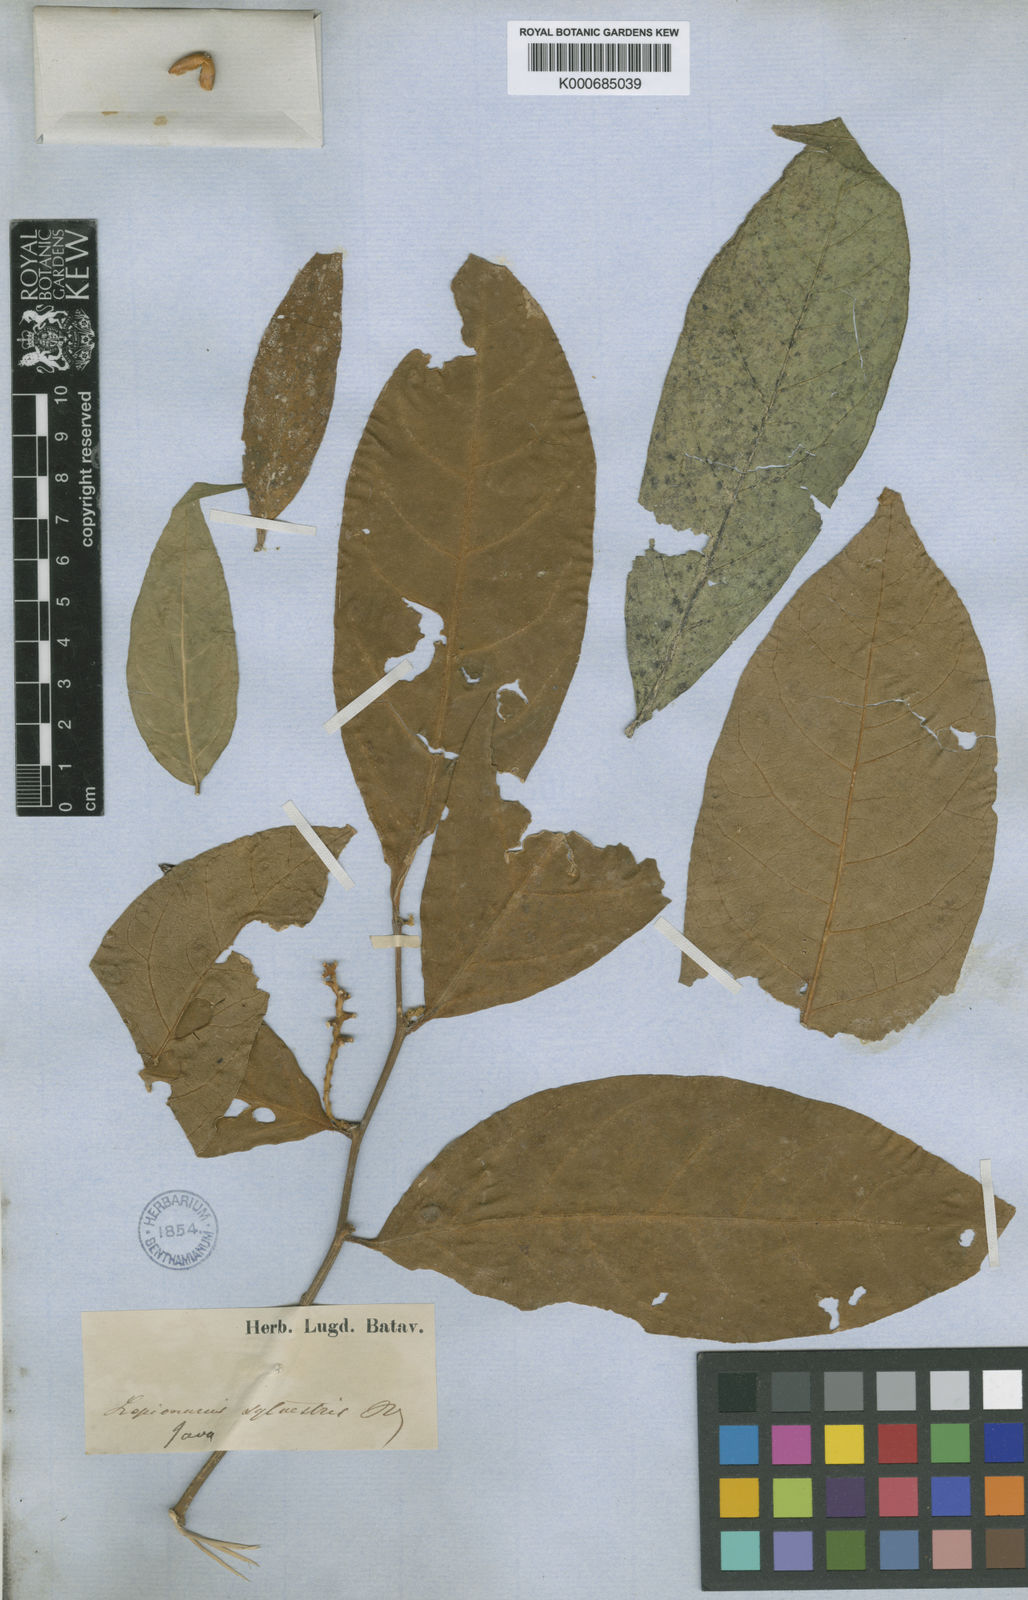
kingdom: Plantae
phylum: Tracheophyta
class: Magnoliopsida
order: Santalales
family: Opiliaceae
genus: Lepionurus
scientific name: Lepionurus sylvestris
